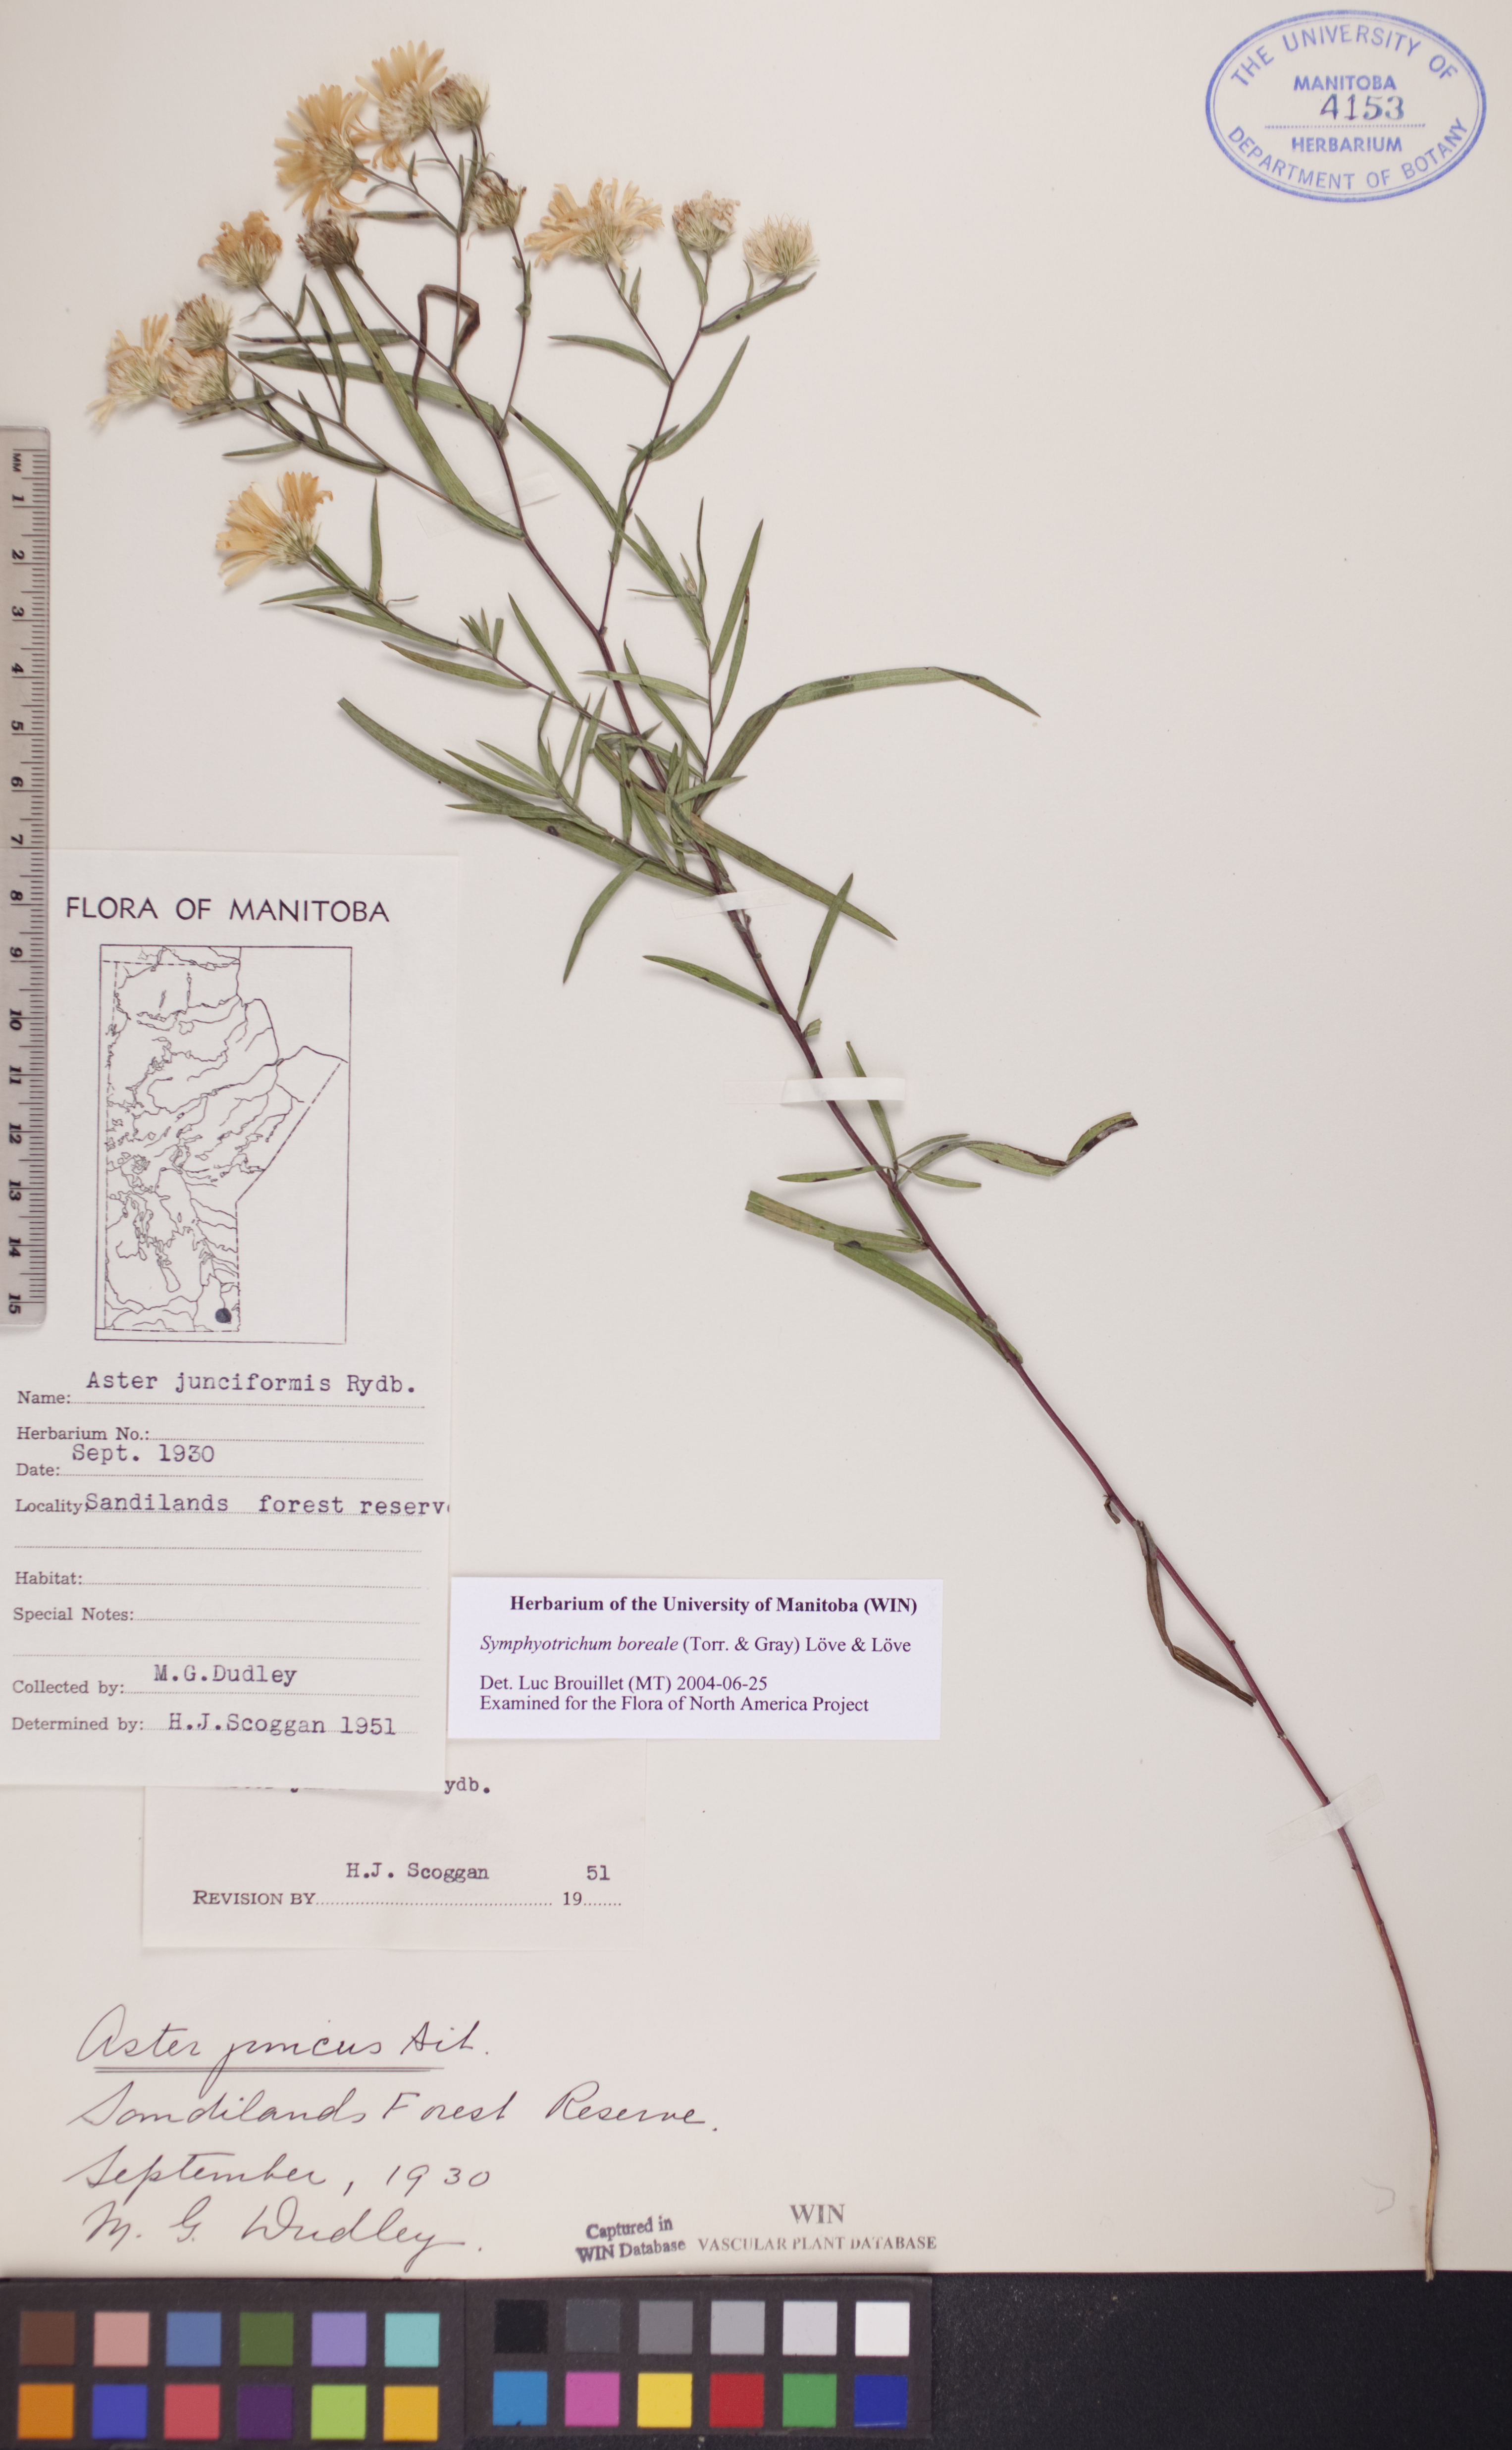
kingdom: Plantae
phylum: Tracheophyta
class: Magnoliopsida
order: Asterales
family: Asteraceae
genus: Symphyotrichum
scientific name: Symphyotrichum boreale
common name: Northern bog aster
